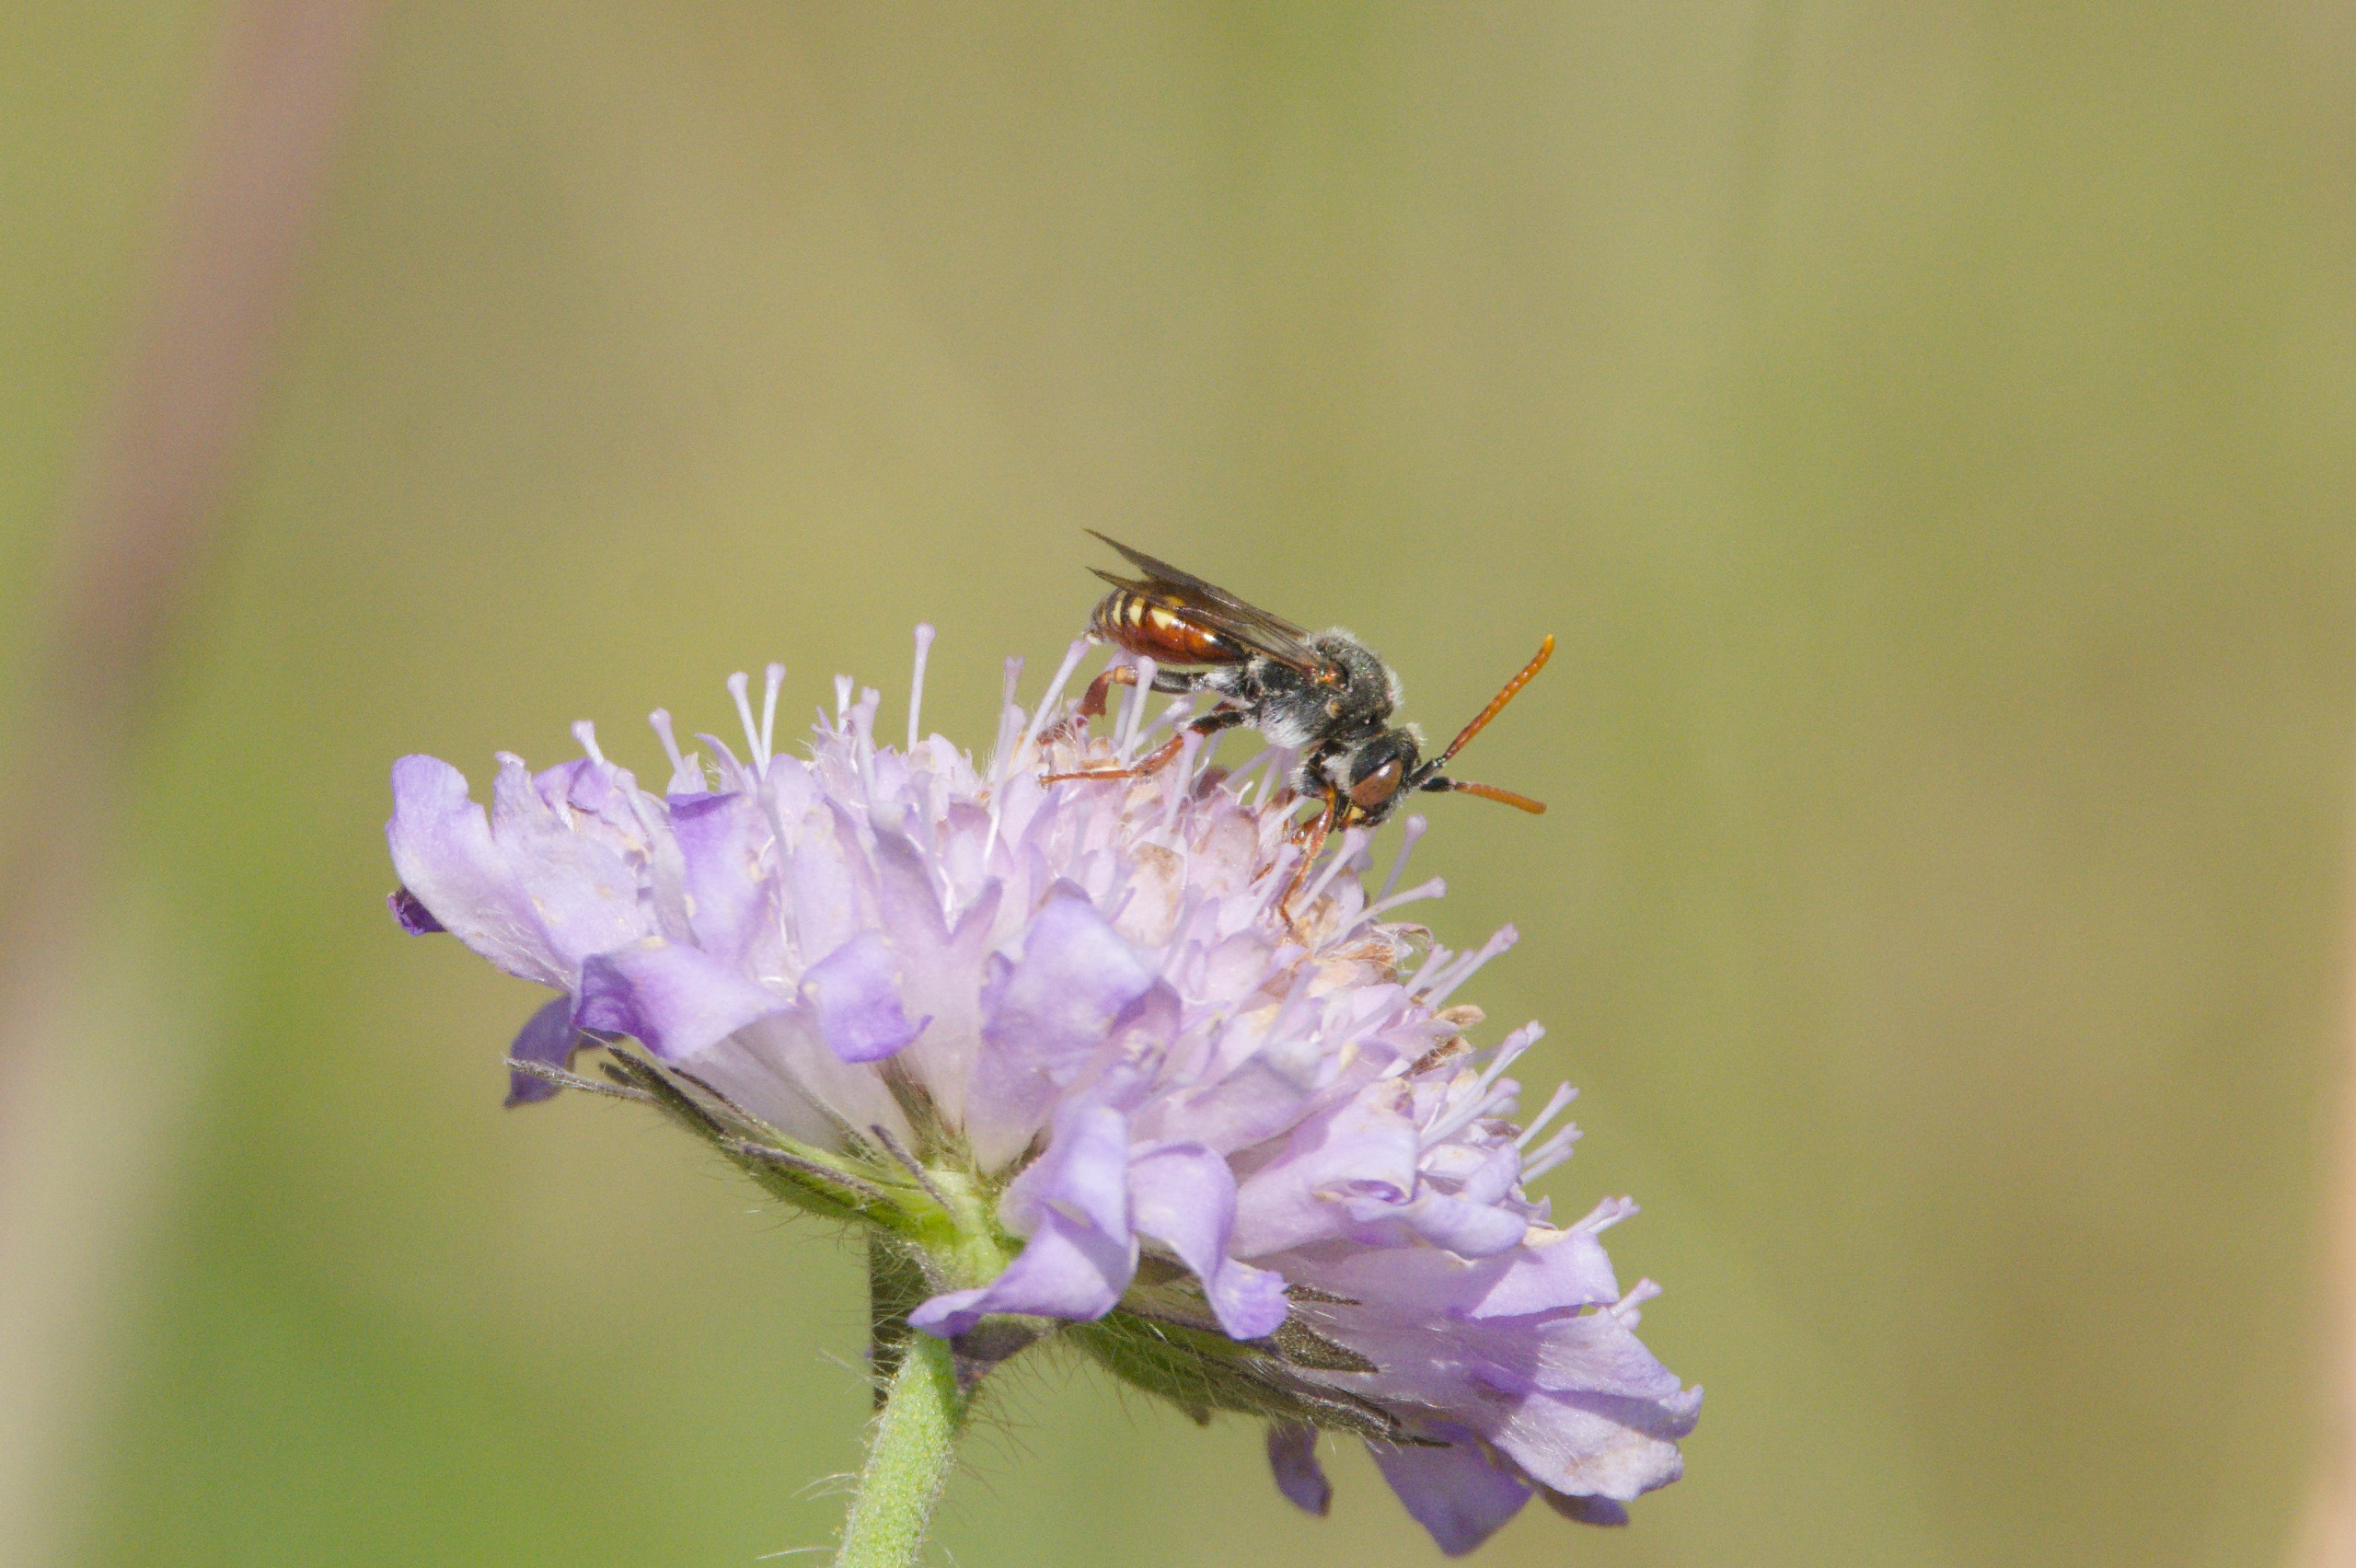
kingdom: Animalia
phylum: Arthropoda
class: Insecta
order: Hymenoptera
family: Apidae
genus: Nomada
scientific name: Nomada armata
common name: Blåhathvepsebi
